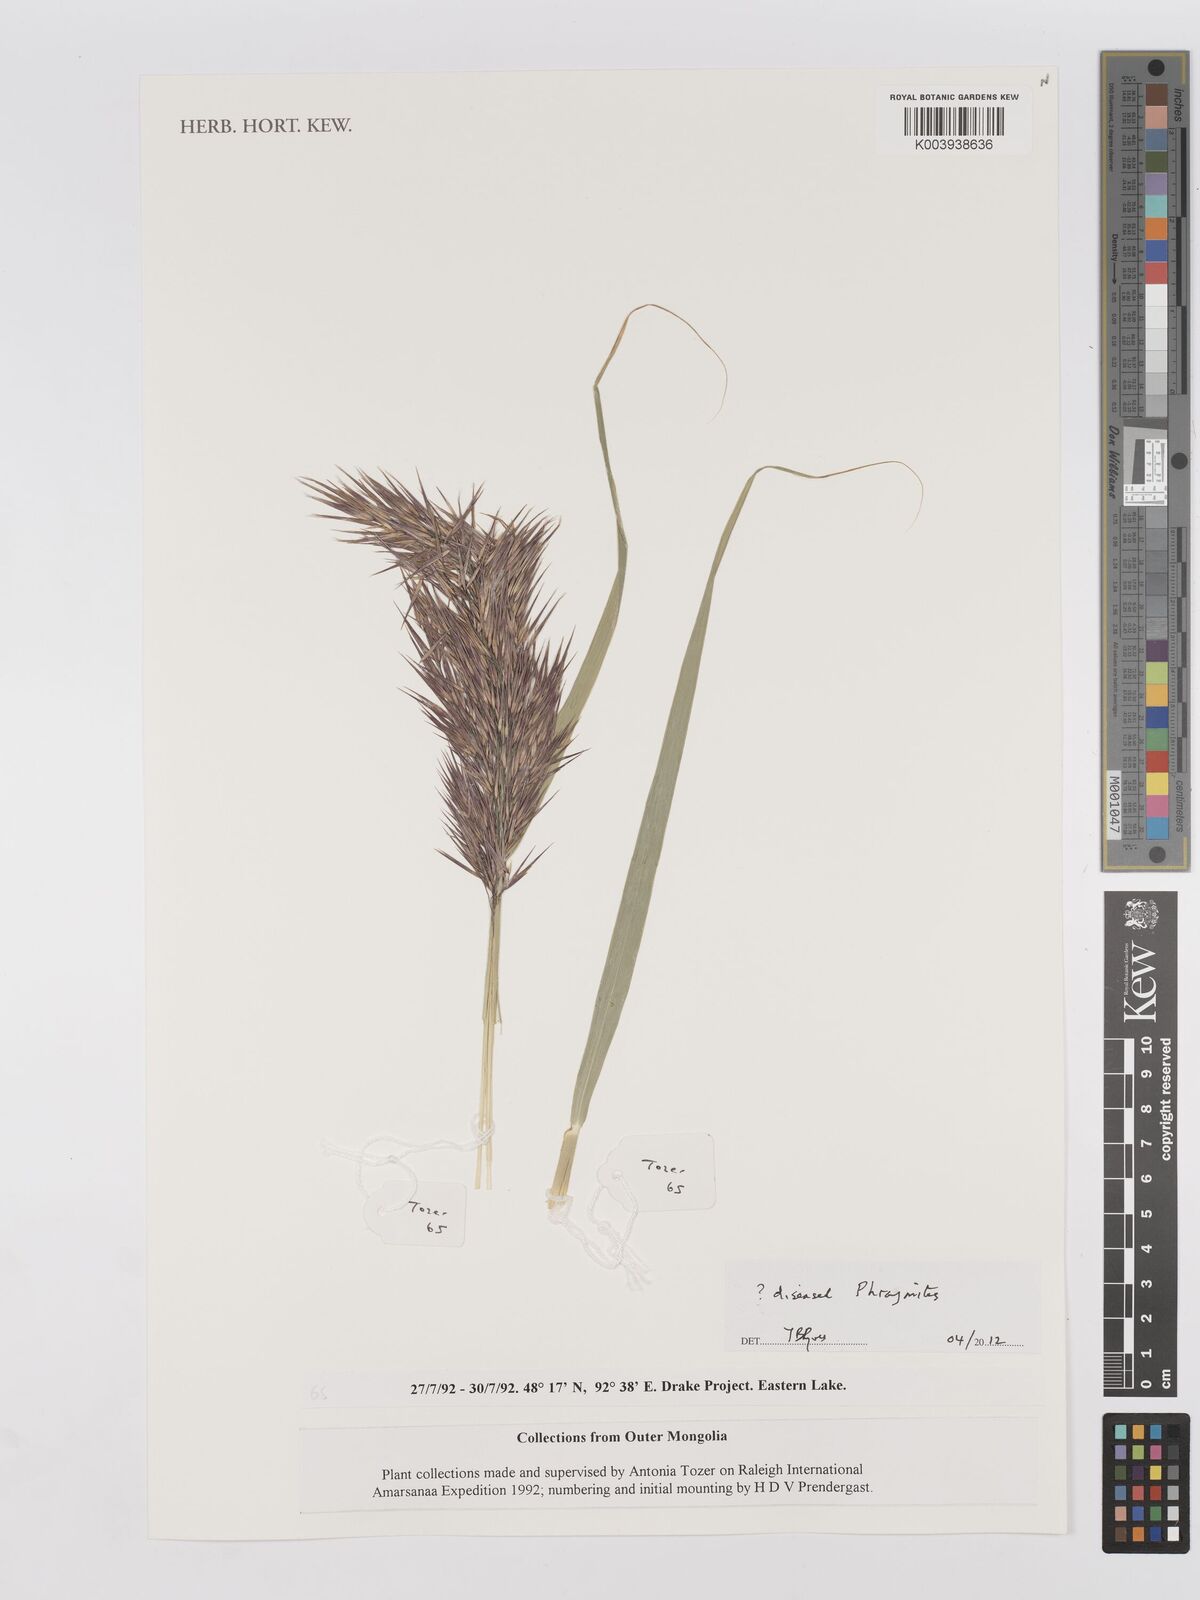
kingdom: Plantae
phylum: Tracheophyta
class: Liliopsida
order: Poales
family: Poaceae
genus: Phragmites
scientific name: Phragmites australis
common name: Common reed
